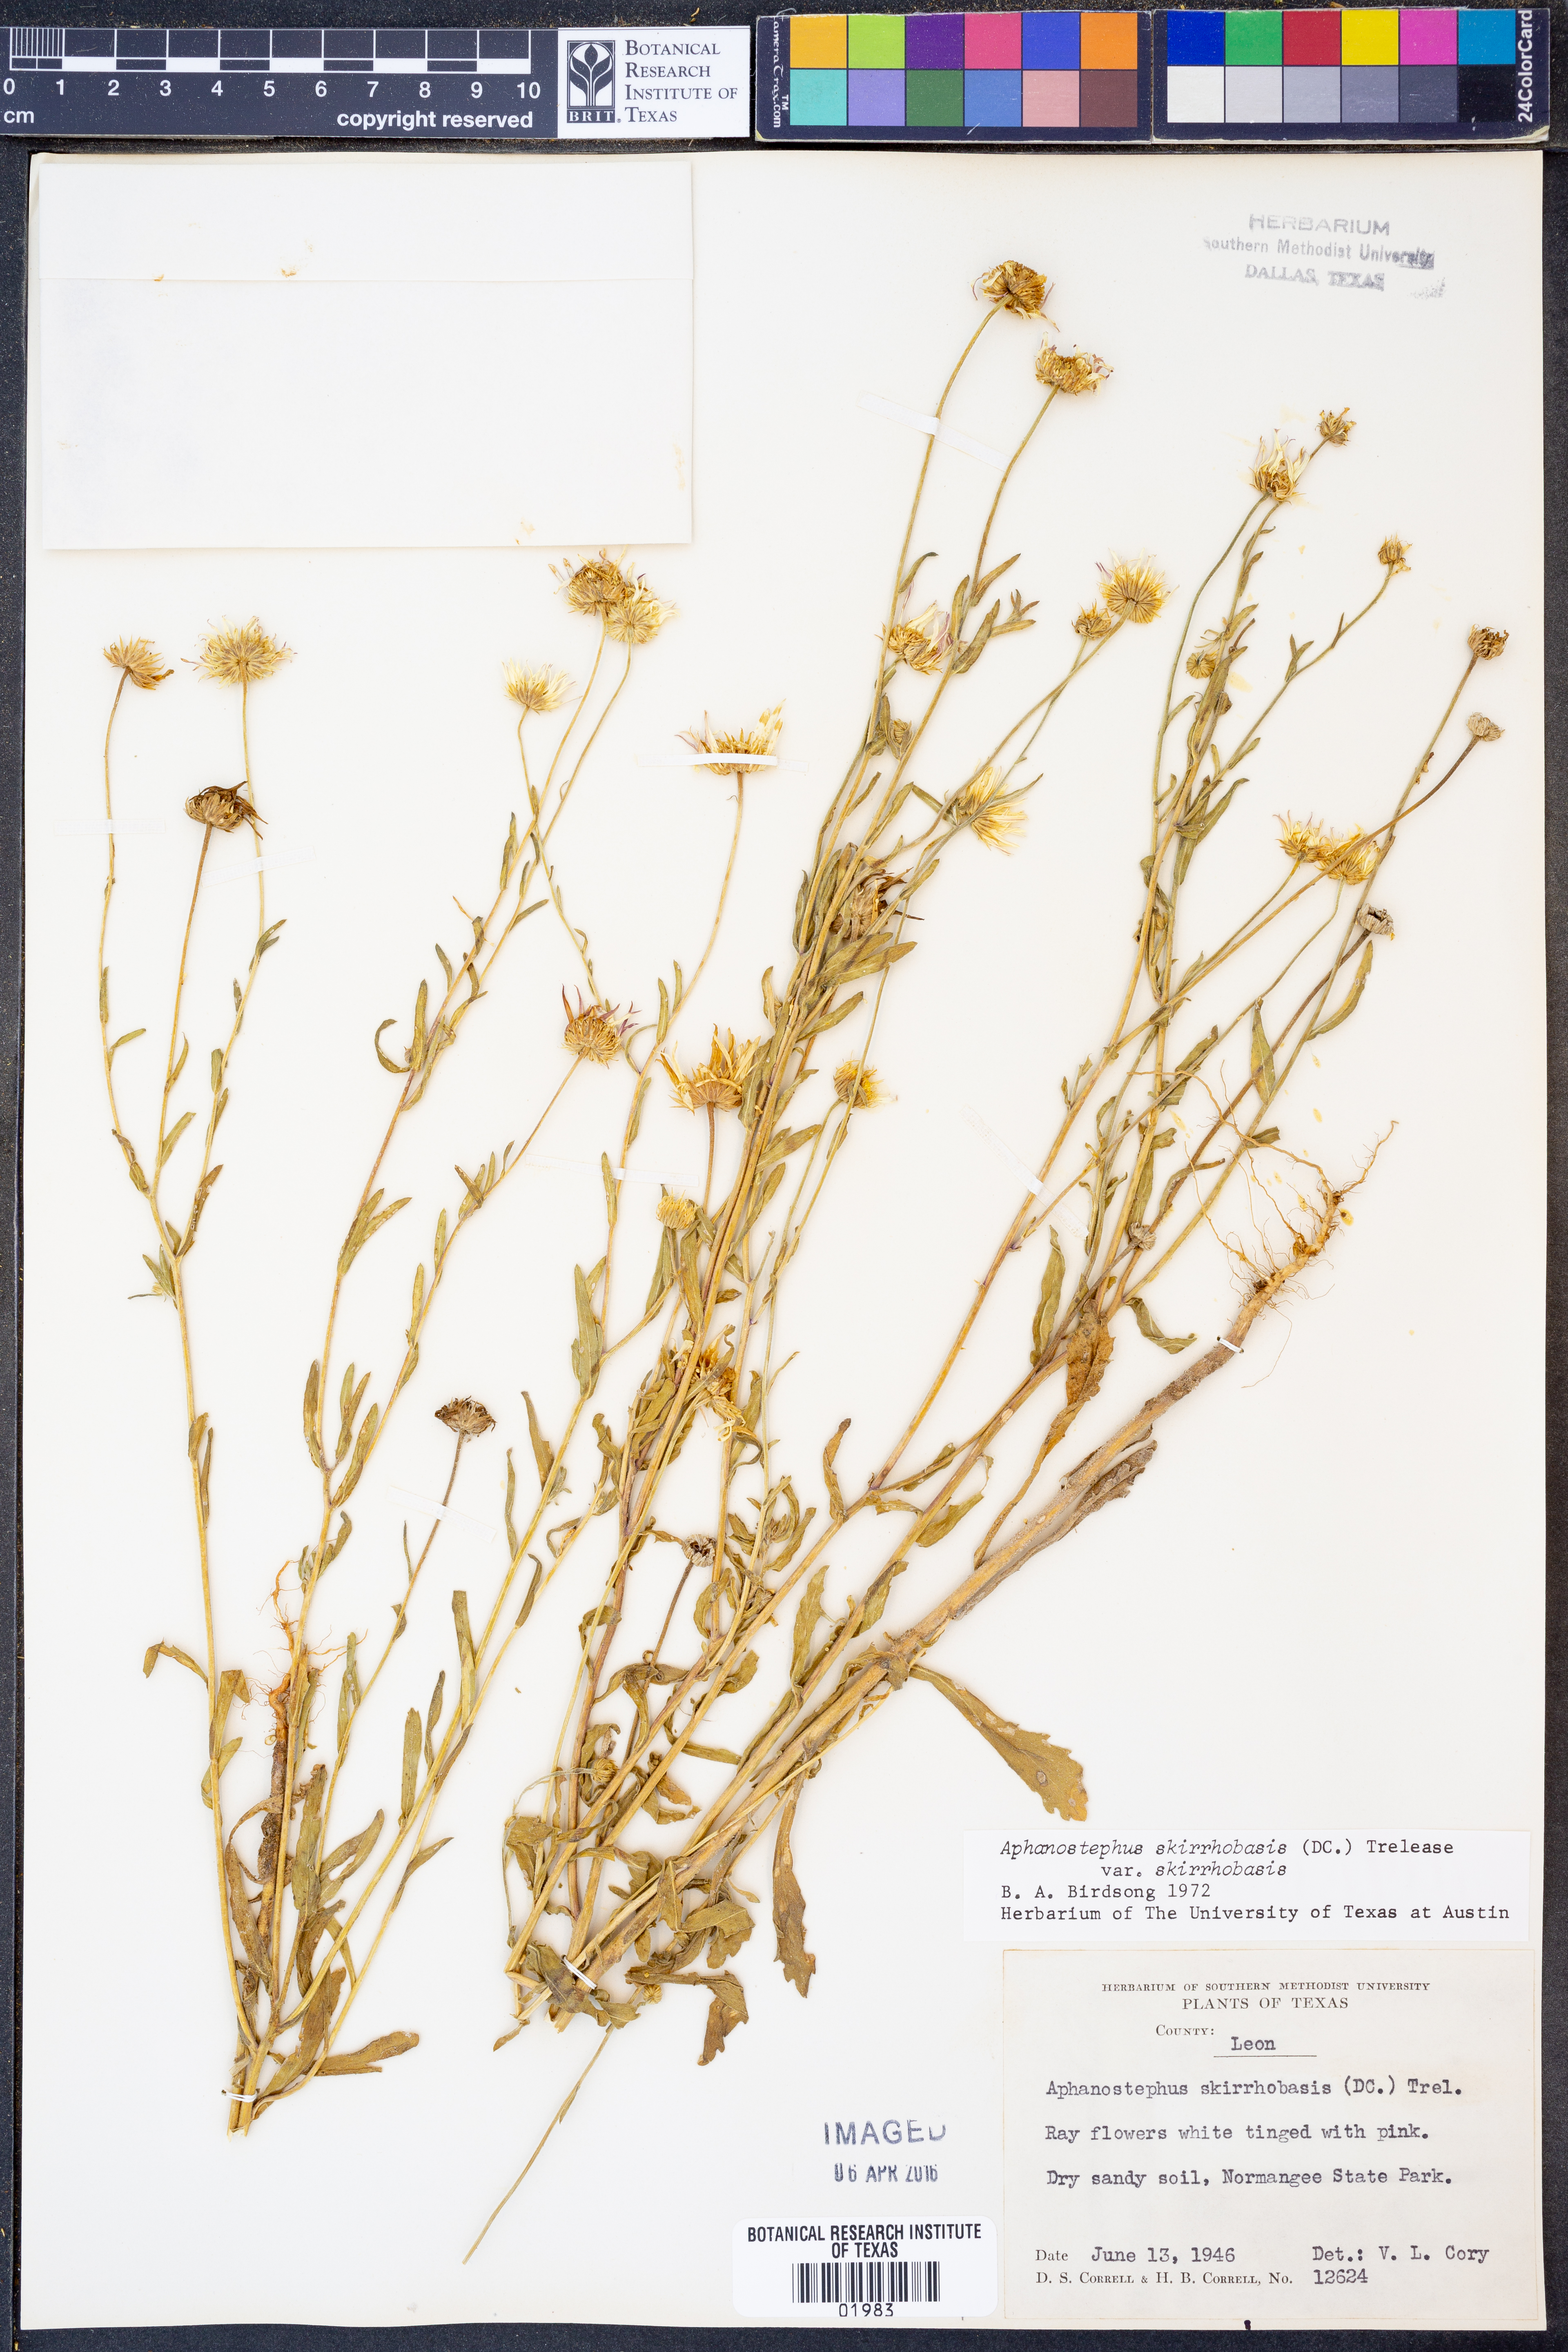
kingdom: Plantae
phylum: Tracheophyta
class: Magnoliopsida
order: Asterales
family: Asteraceae
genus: Aphanostephus
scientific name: Aphanostephus skirrhobasis
